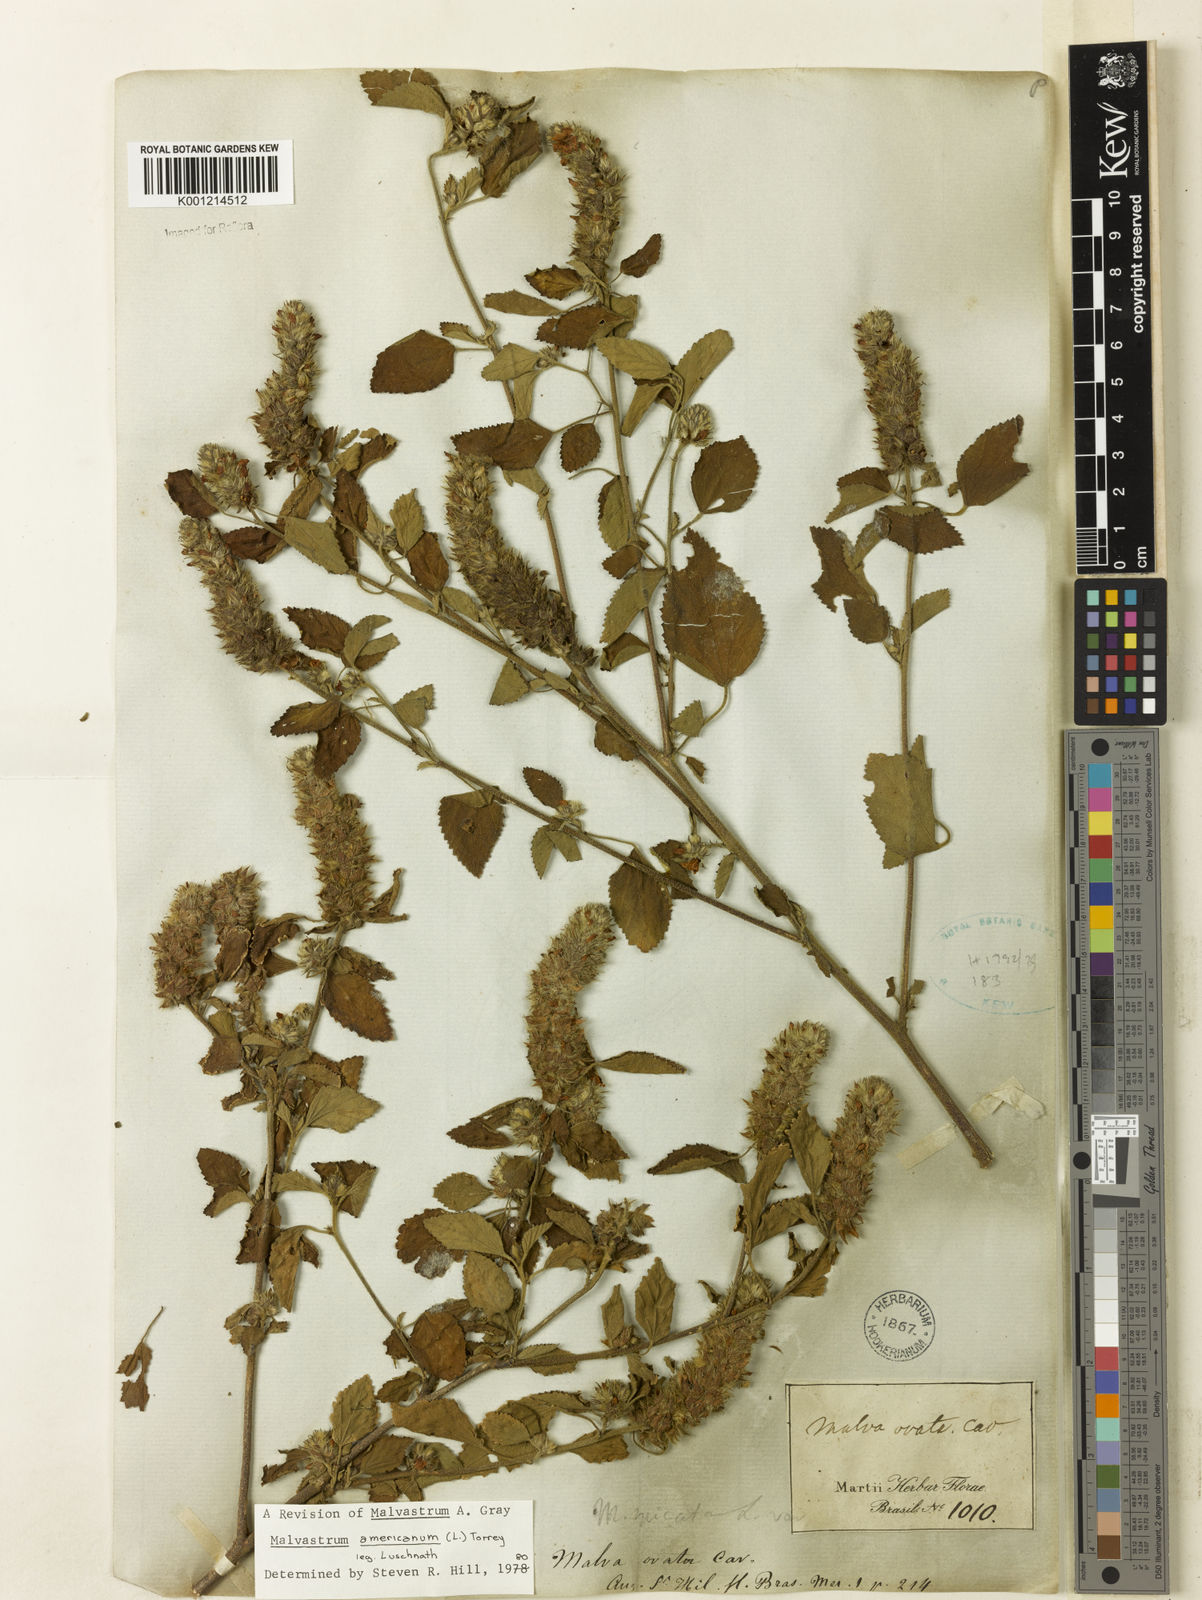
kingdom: Plantae
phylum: Tracheophyta
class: Magnoliopsida
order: Malvales
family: Malvaceae
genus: Malvastrum
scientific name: Malvastrum americanum
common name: Spiked malvastrum
